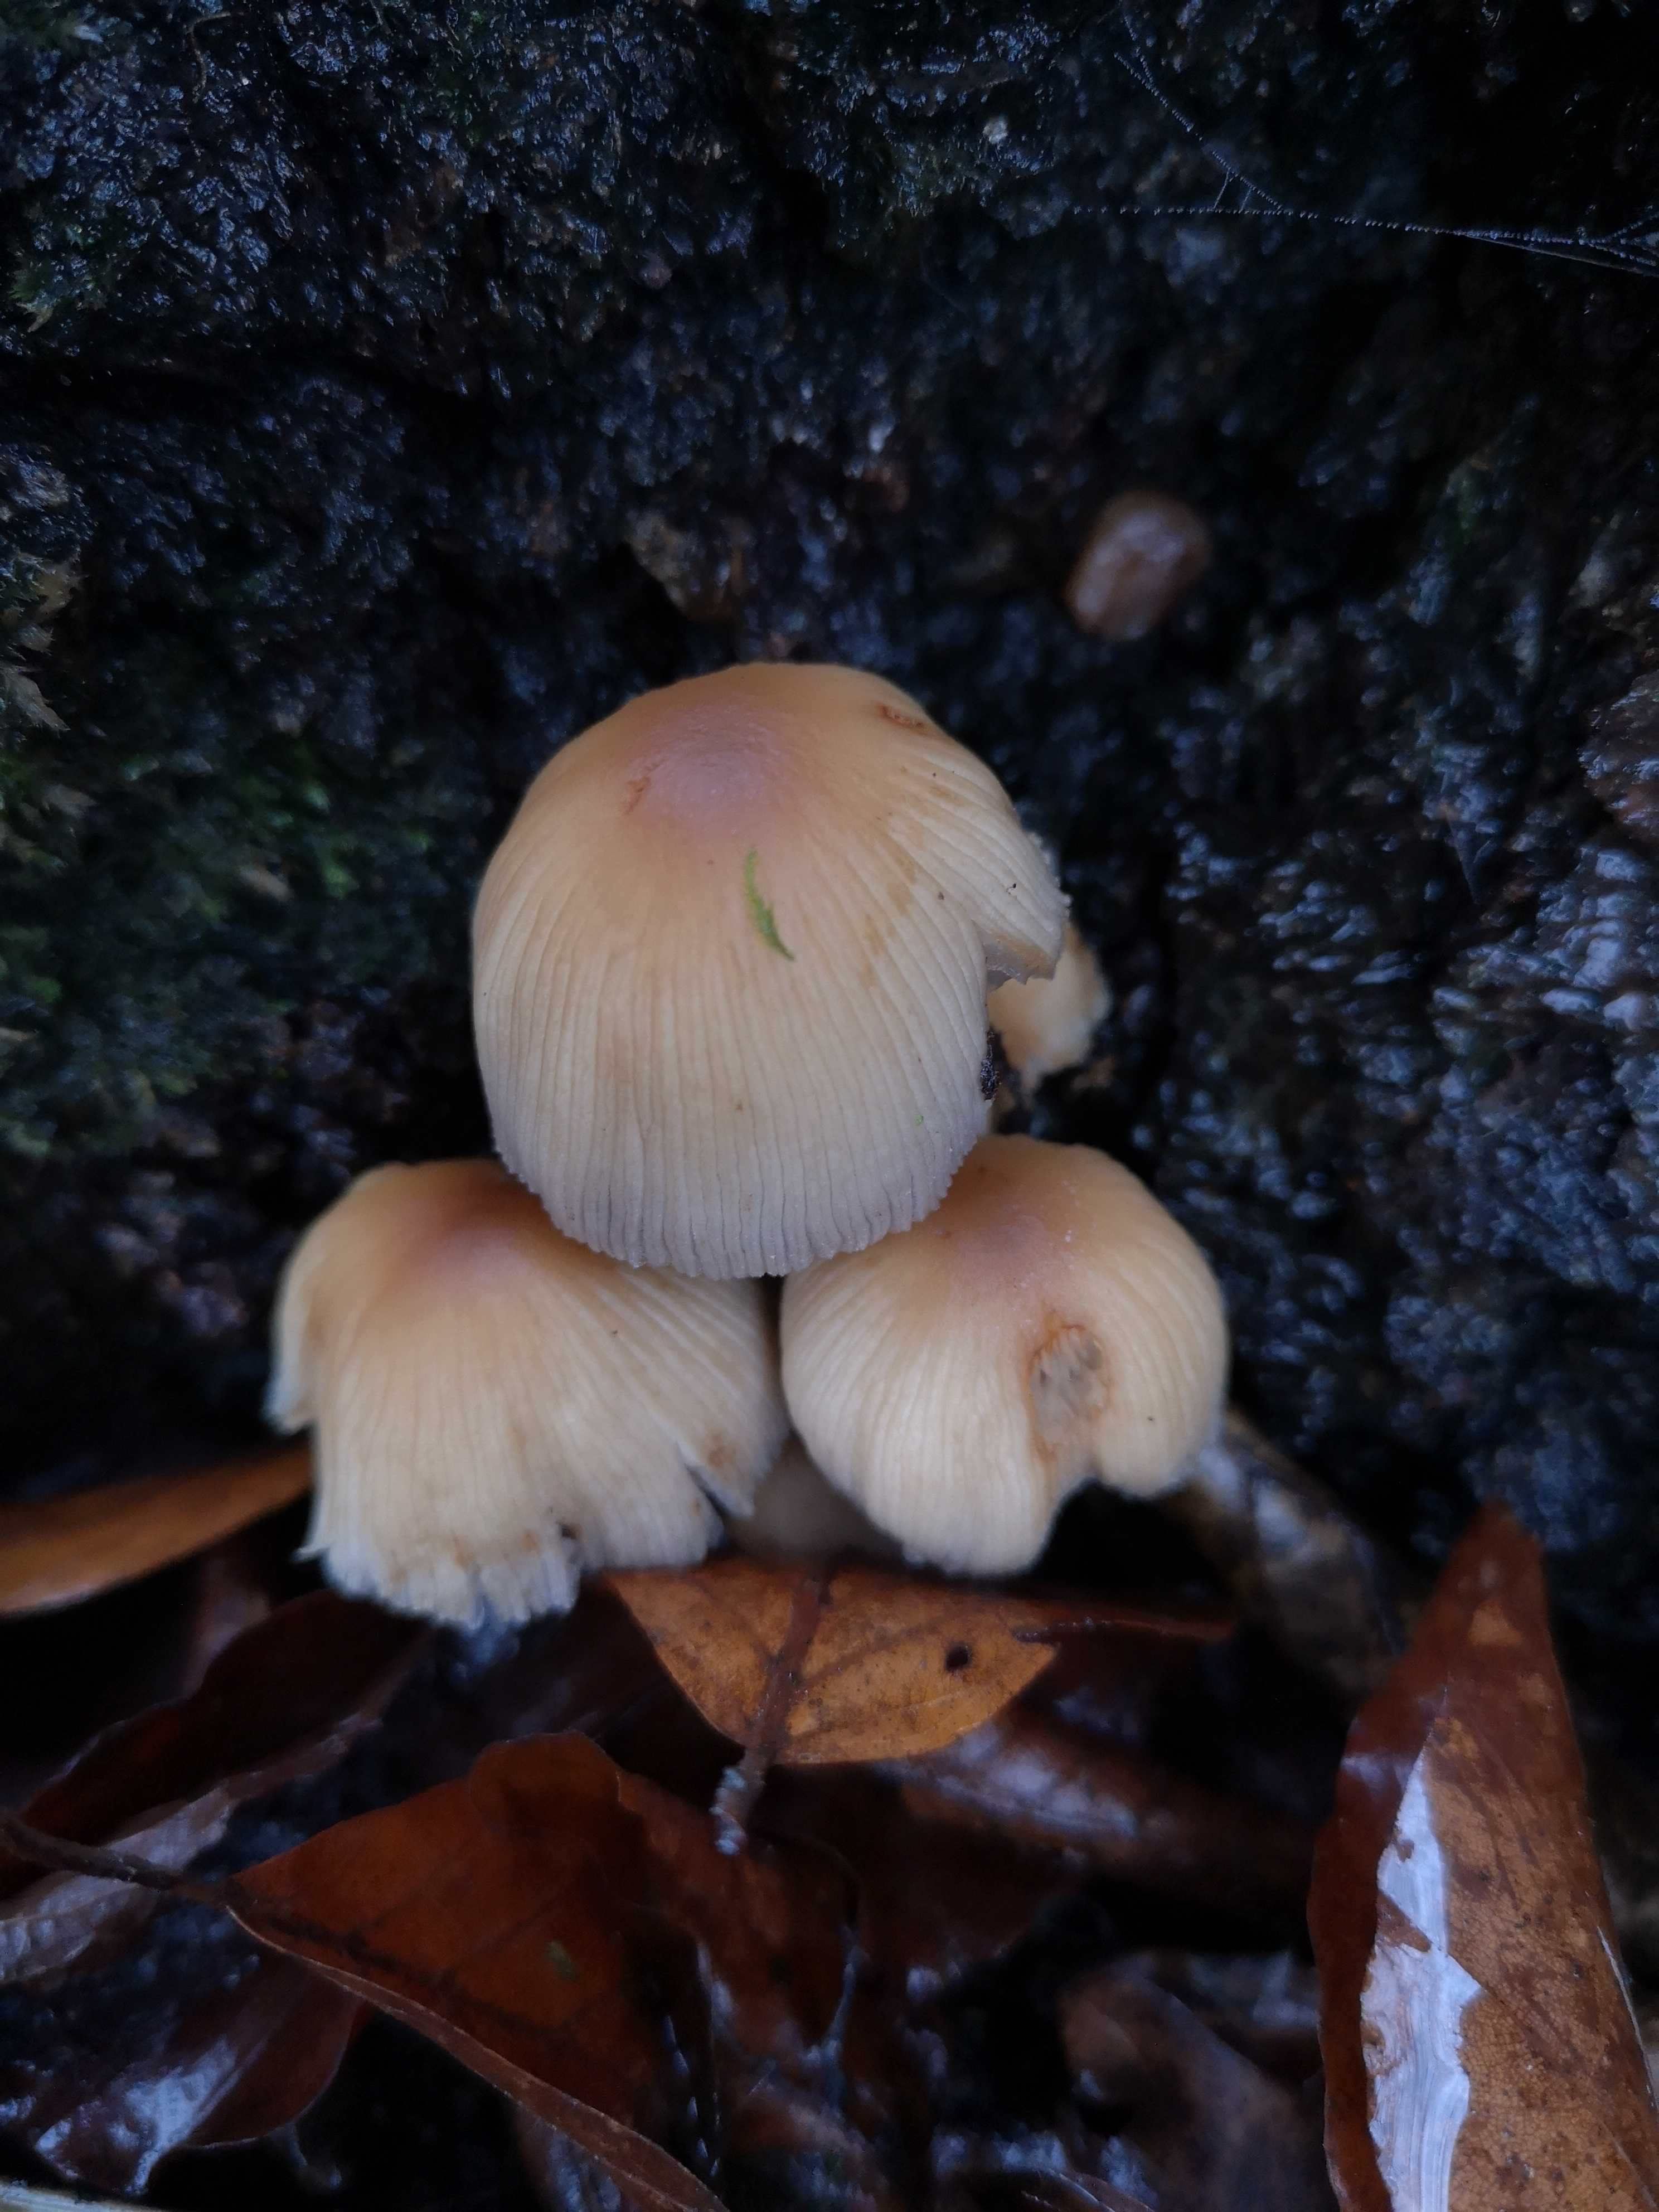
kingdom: Fungi
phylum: Basidiomycota
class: Agaricomycetes
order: Agaricales
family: Psathyrellaceae
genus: Coprinellus
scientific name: Coprinellus micaceus
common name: glimmer-blækhat
